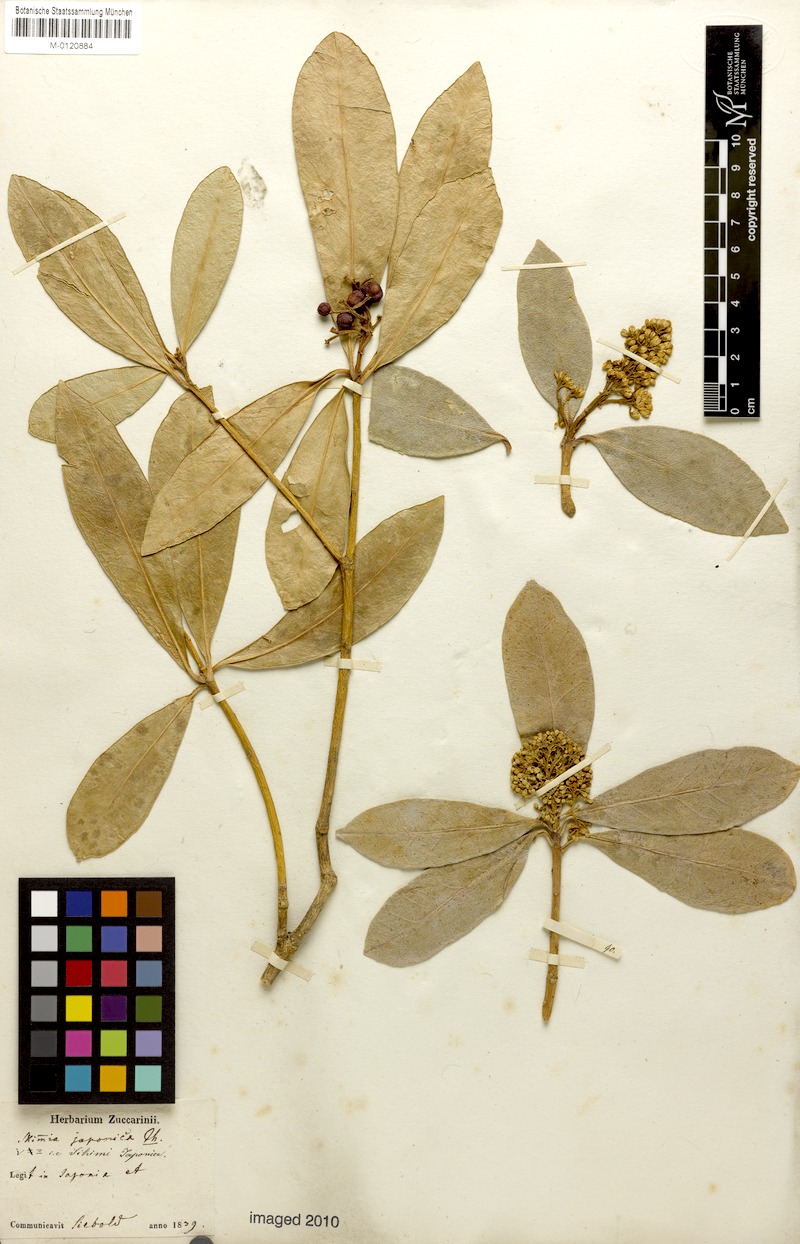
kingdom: Plantae
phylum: Tracheophyta
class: Magnoliopsida
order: Sapindales
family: Rutaceae
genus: Skimmia
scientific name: Skimmia japonica
